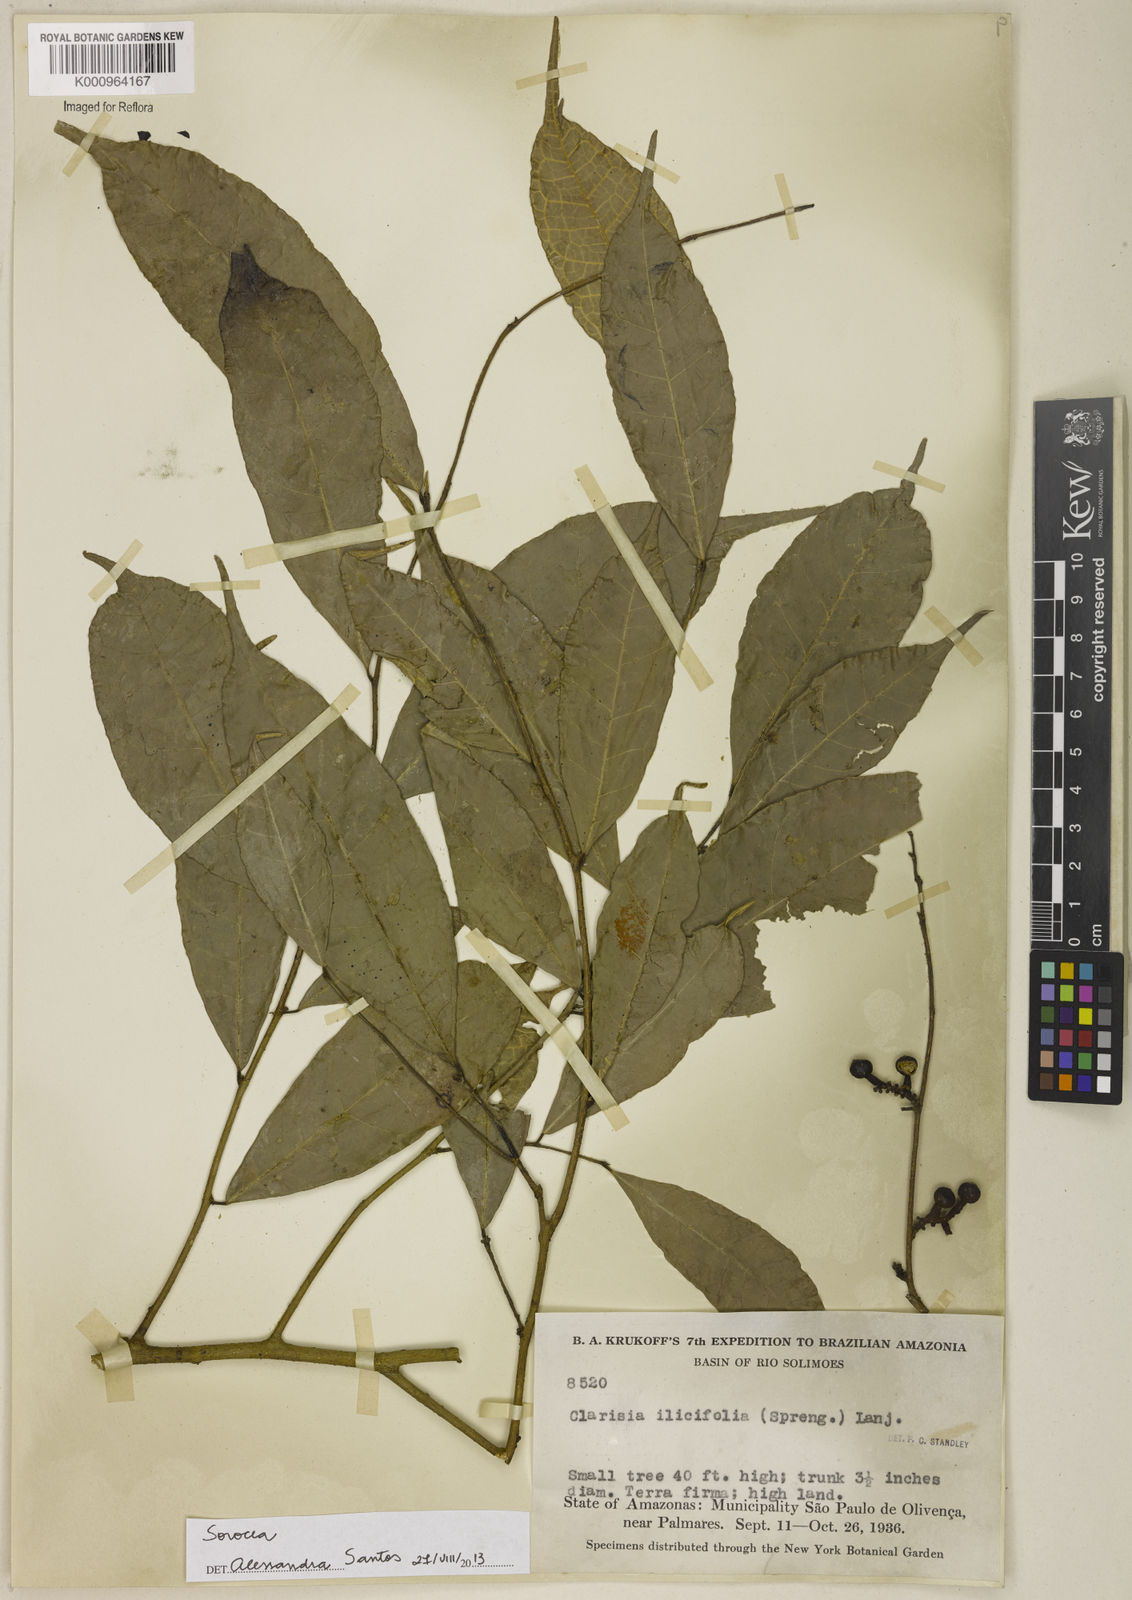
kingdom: Plantae
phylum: Tracheophyta
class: Magnoliopsida
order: Rosales
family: Moraceae
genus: Sorocea
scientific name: Sorocea
